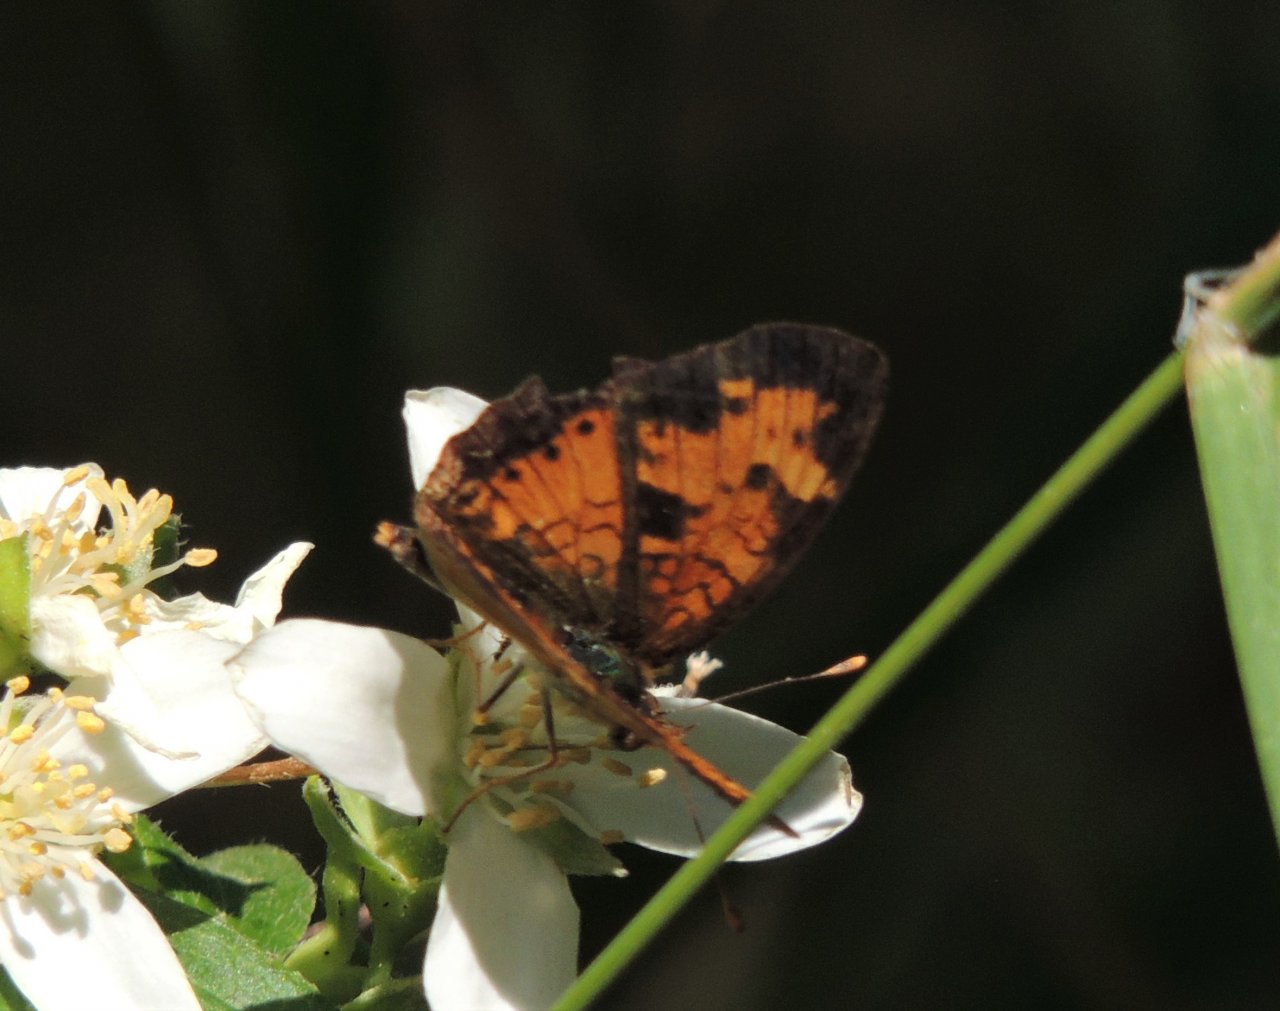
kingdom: Animalia
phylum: Arthropoda
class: Insecta
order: Lepidoptera
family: Nymphalidae
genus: Phyciodes
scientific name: Phyciodes tharos
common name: Northern Crescent
